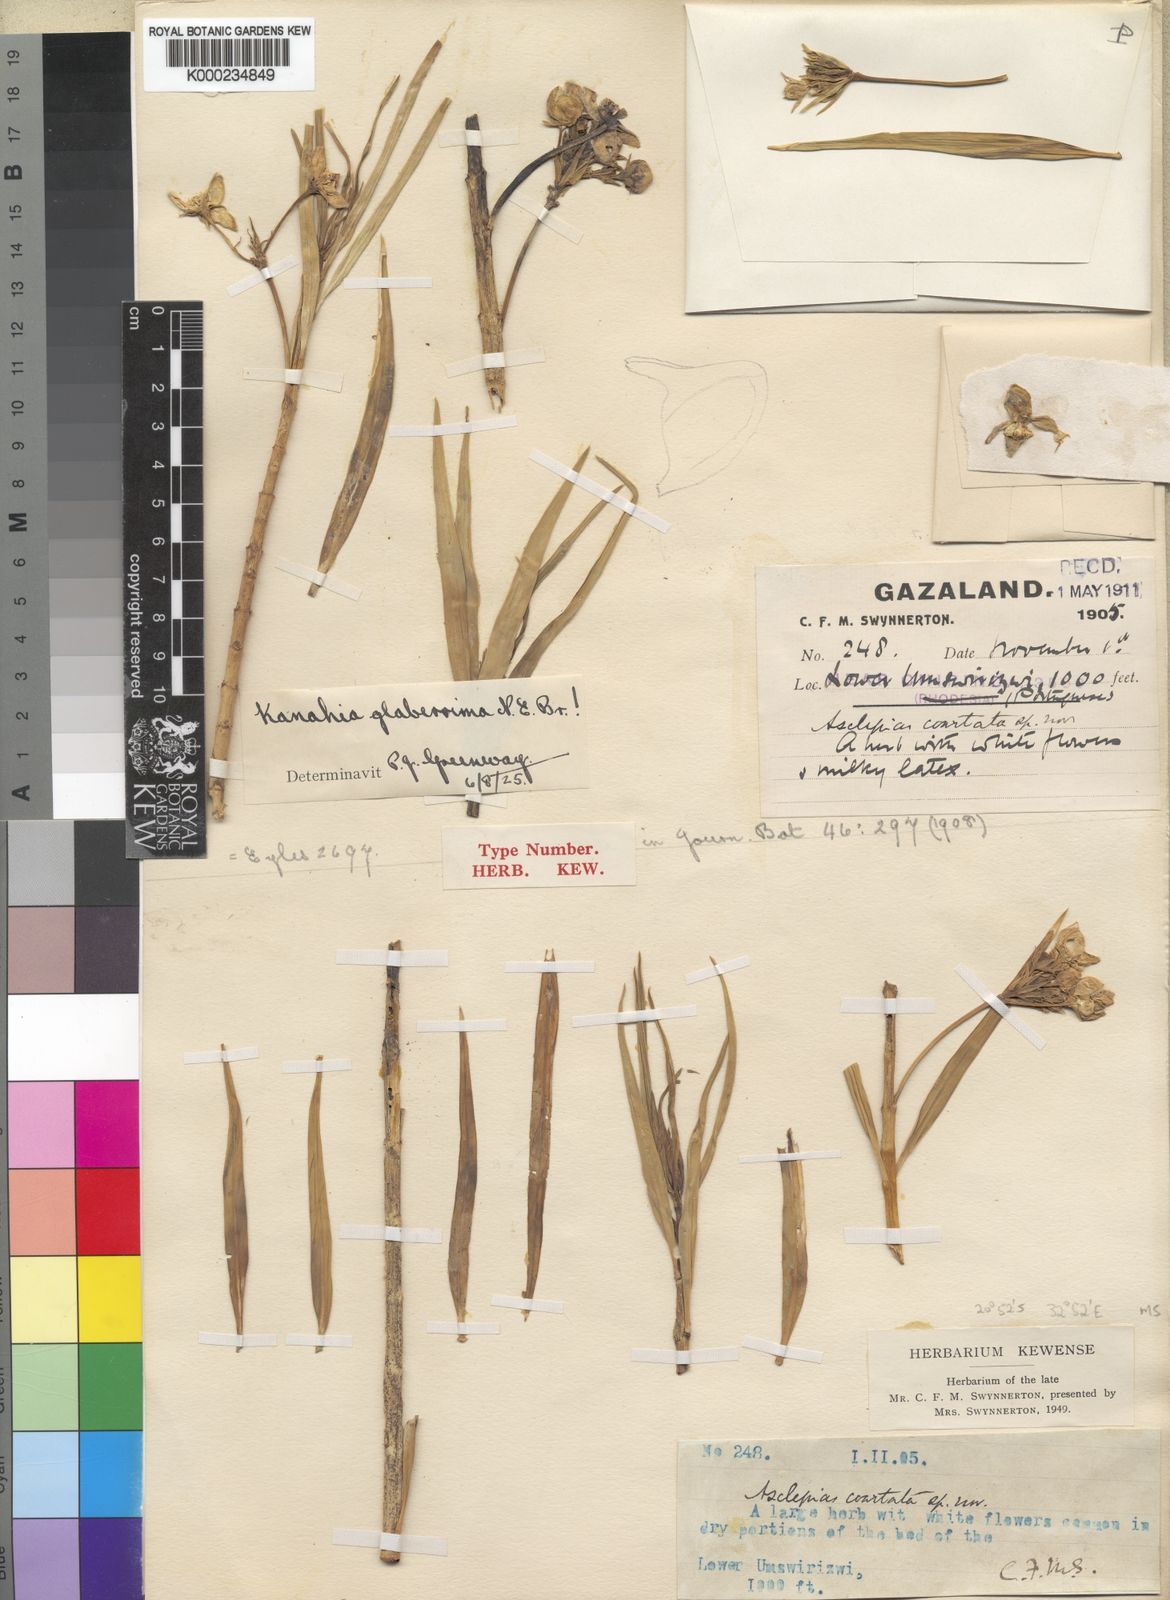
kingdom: Plantae
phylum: Tracheophyta
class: Magnoliopsida
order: Gentianales
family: Apocynaceae
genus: Kanahia
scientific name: Kanahia laniflora
